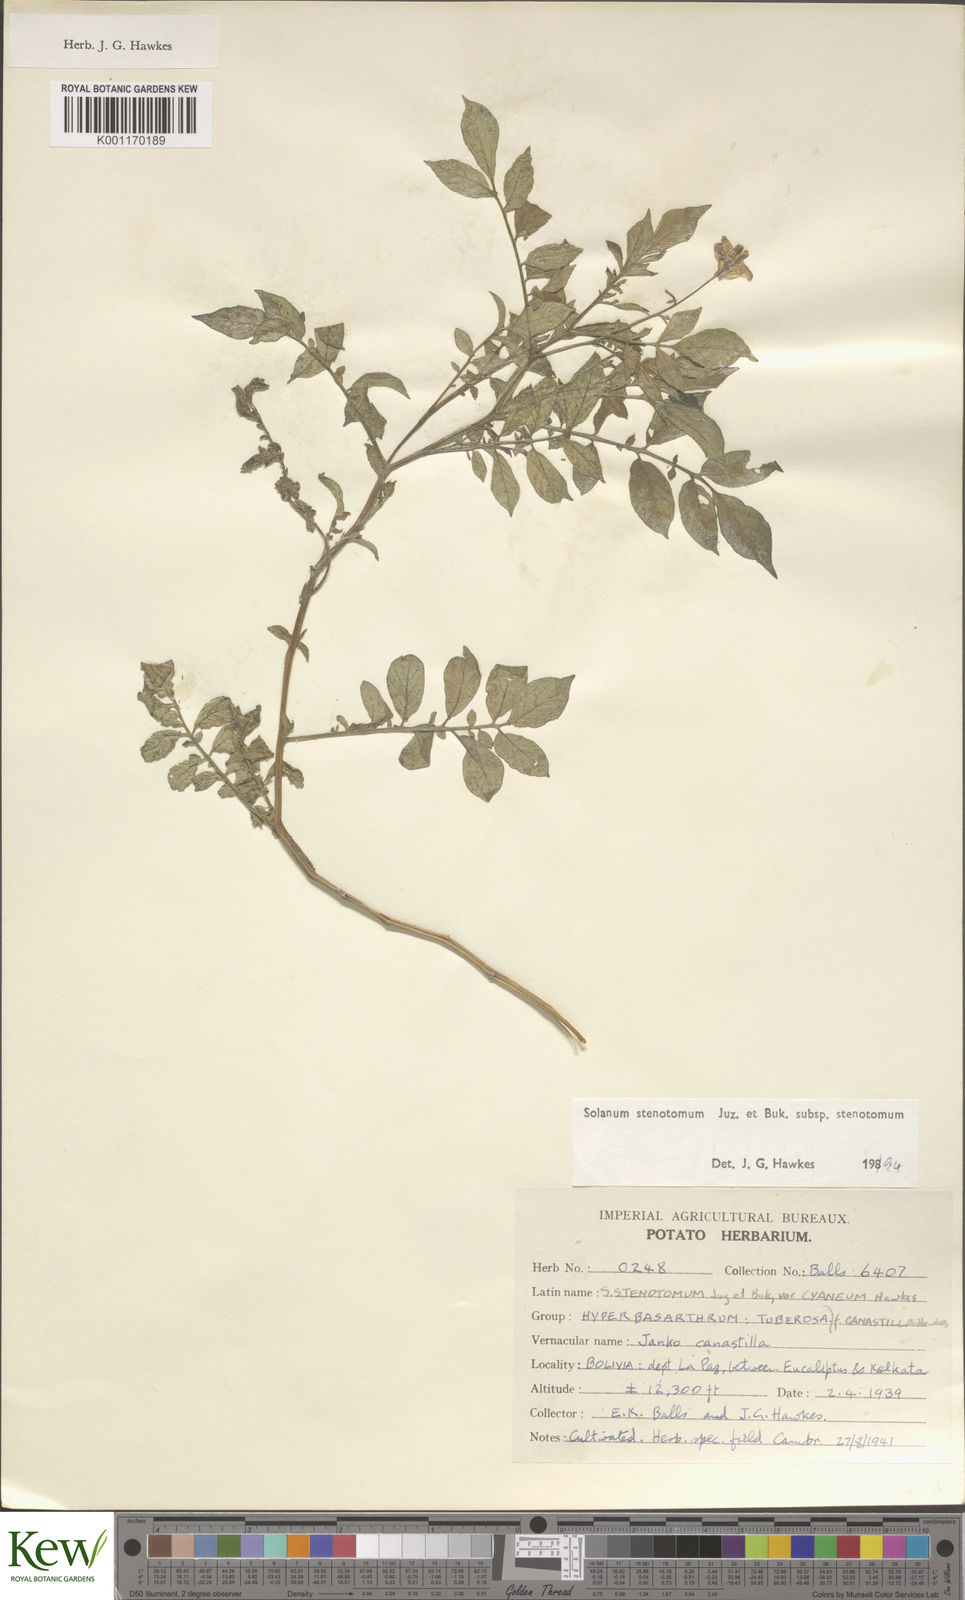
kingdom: Plantae
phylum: Tracheophyta
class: Magnoliopsida
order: Solanales
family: Solanaceae
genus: Solanum
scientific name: Solanum tuberosum
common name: Potato
